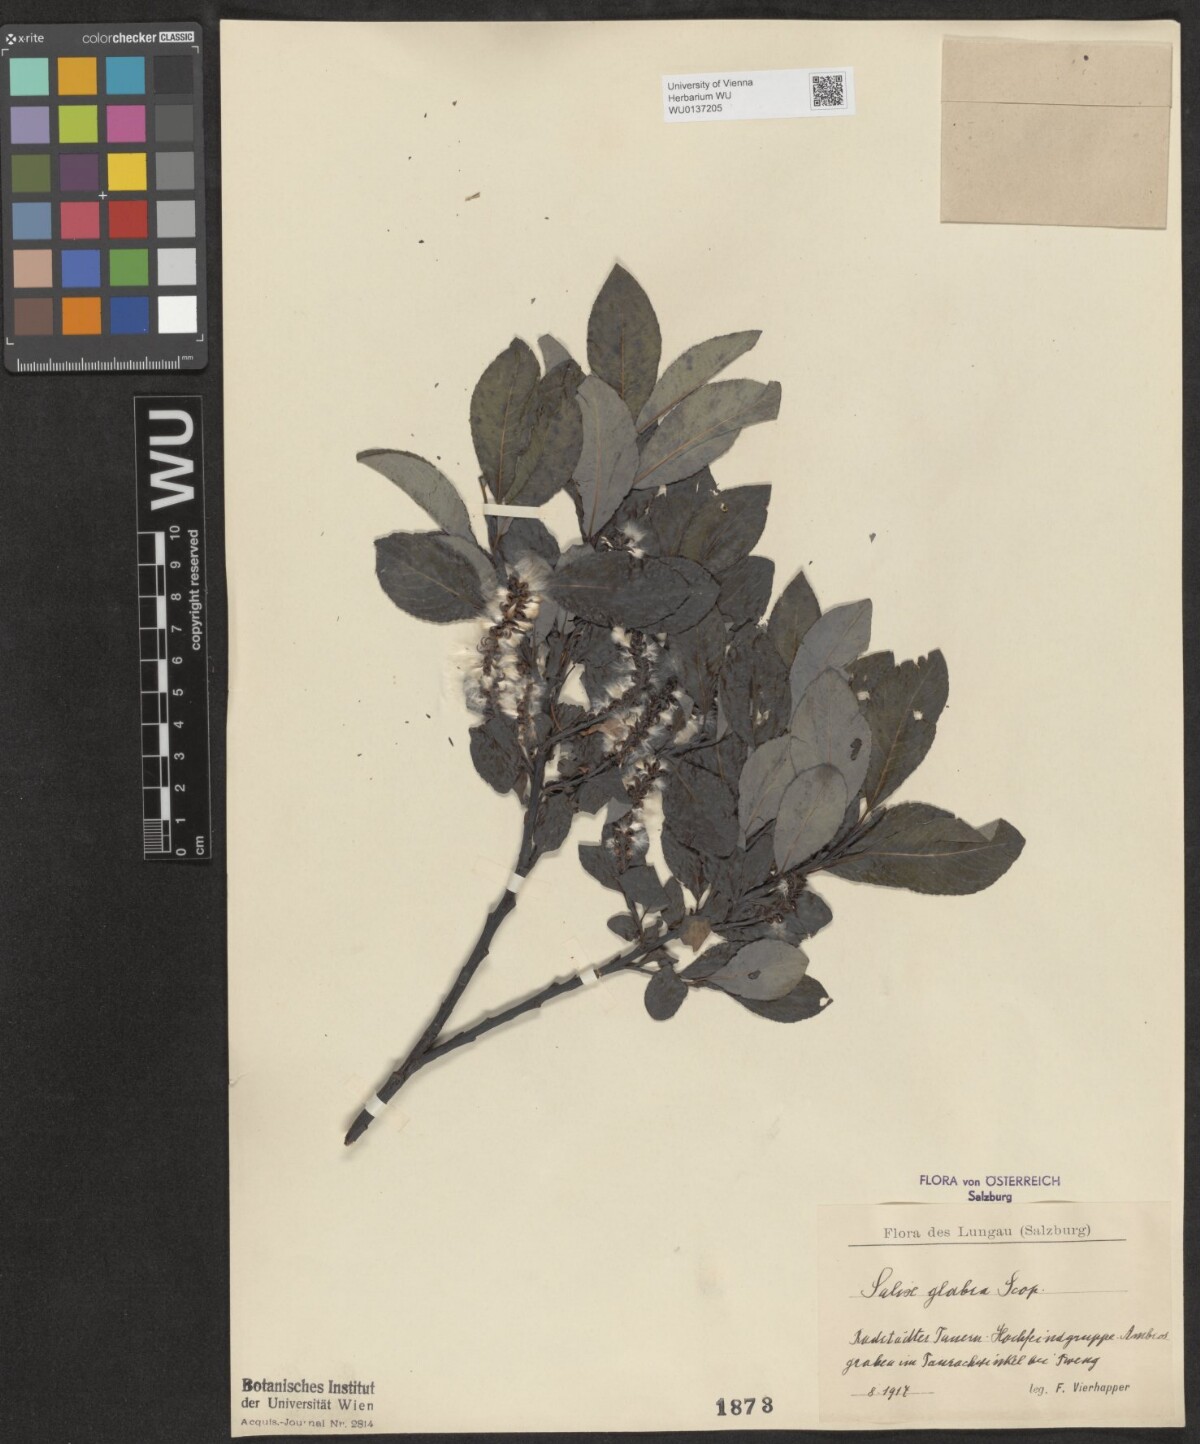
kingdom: Plantae
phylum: Tracheophyta
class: Magnoliopsida
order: Malpighiales
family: Salicaceae
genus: Salix
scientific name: Salix glabra
